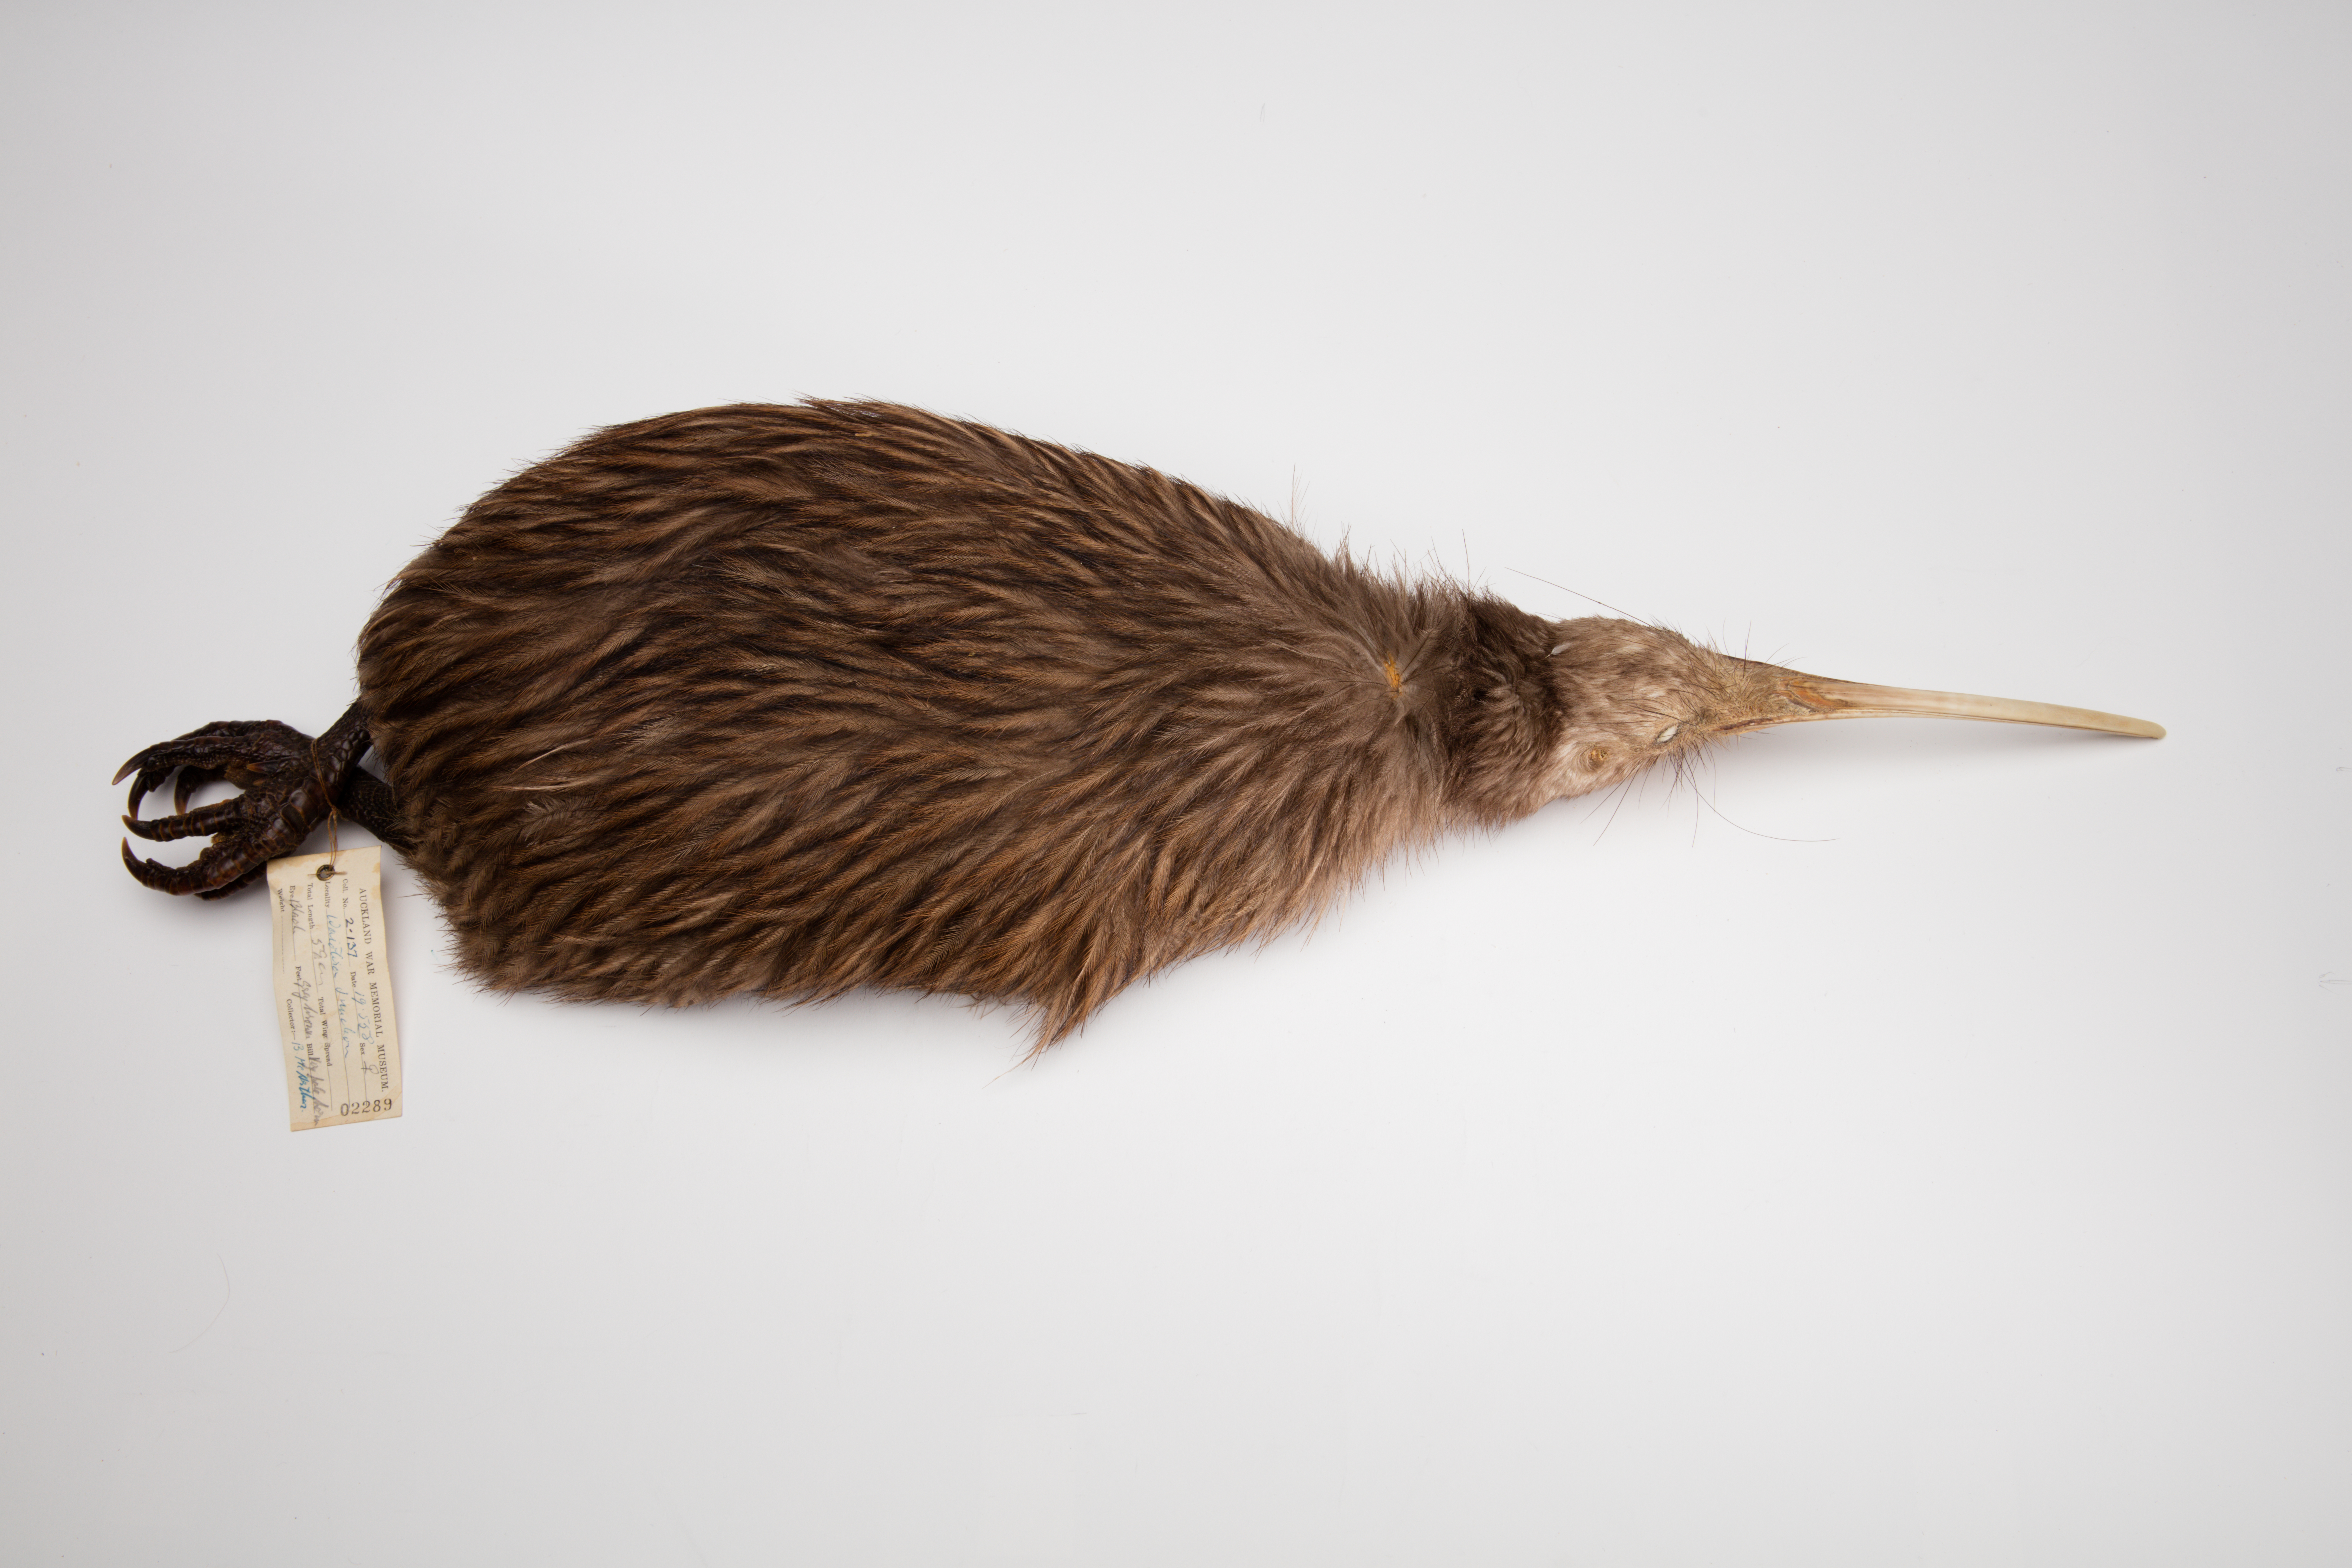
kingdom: Animalia
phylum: Chordata
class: Aves
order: Apterygiformes
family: Apterygidae
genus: Apteryx
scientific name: Apteryx mantelli
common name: North island brown kiwi
